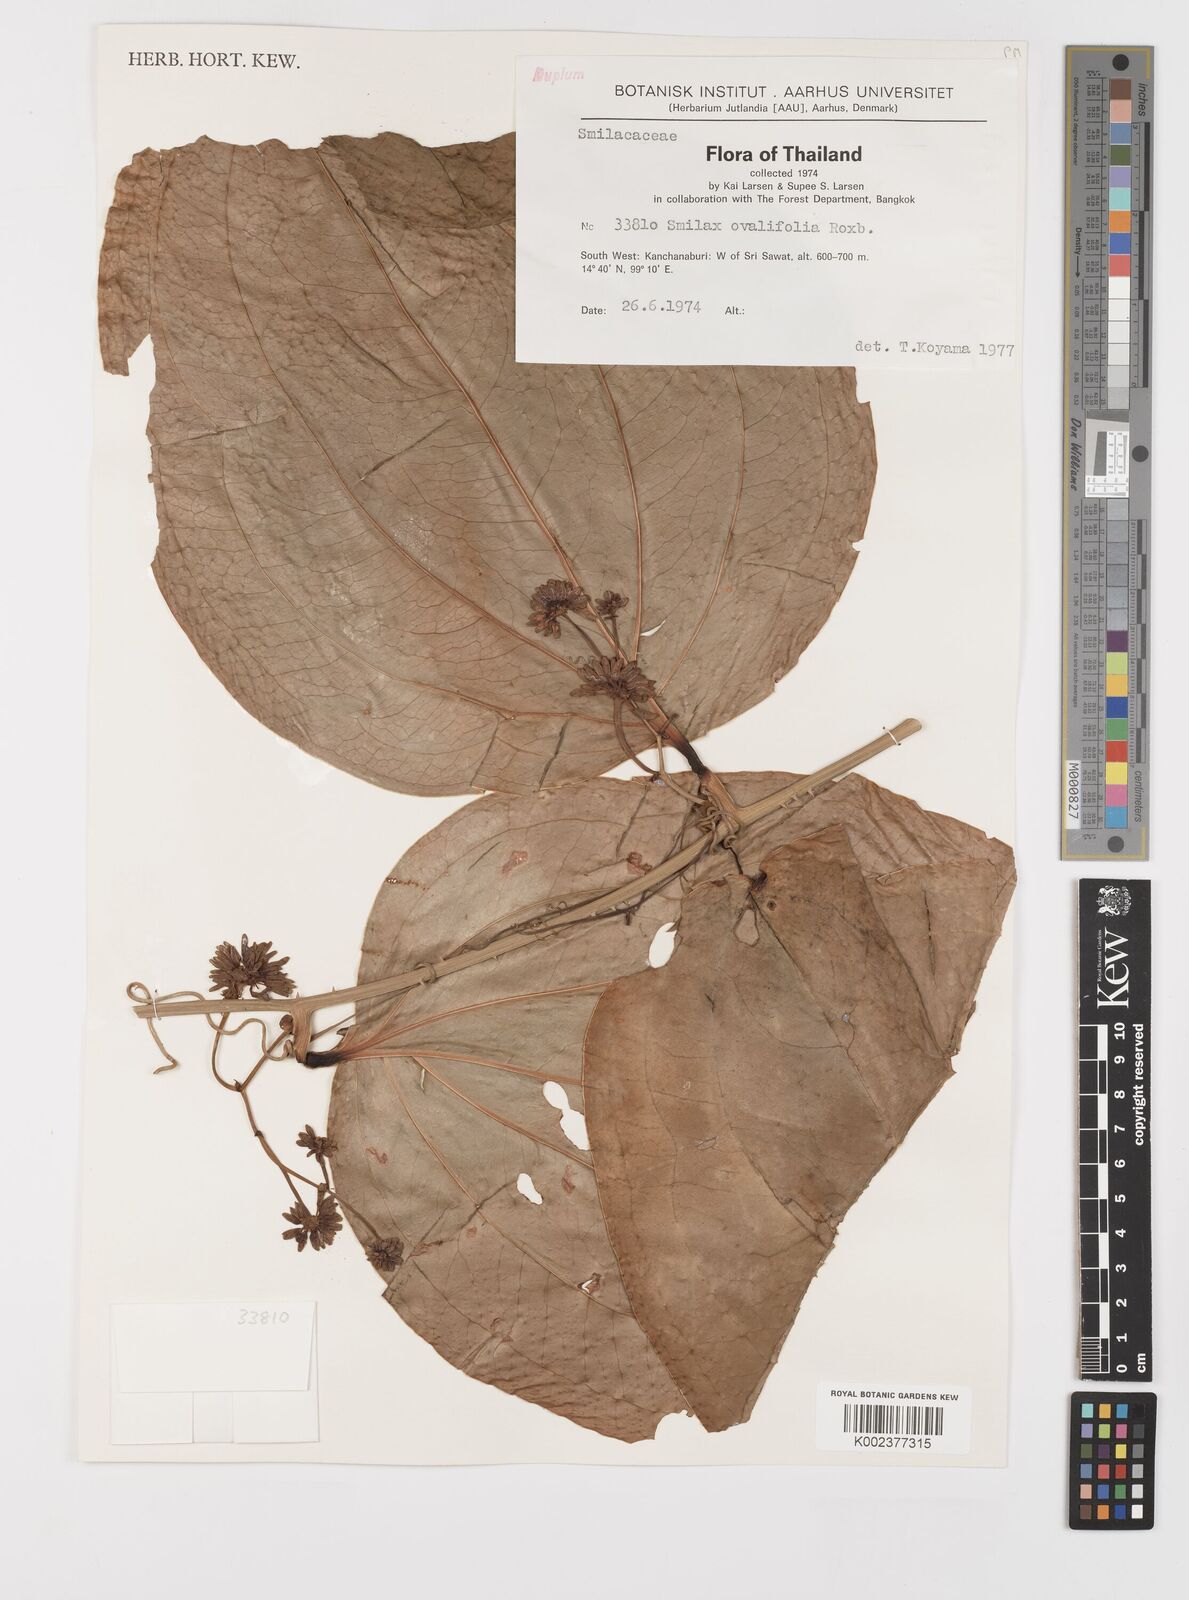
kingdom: Plantae
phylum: Tracheophyta
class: Liliopsida
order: Liliales
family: Smilacaceae
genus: Smilax
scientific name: Smilax ovalifolia
